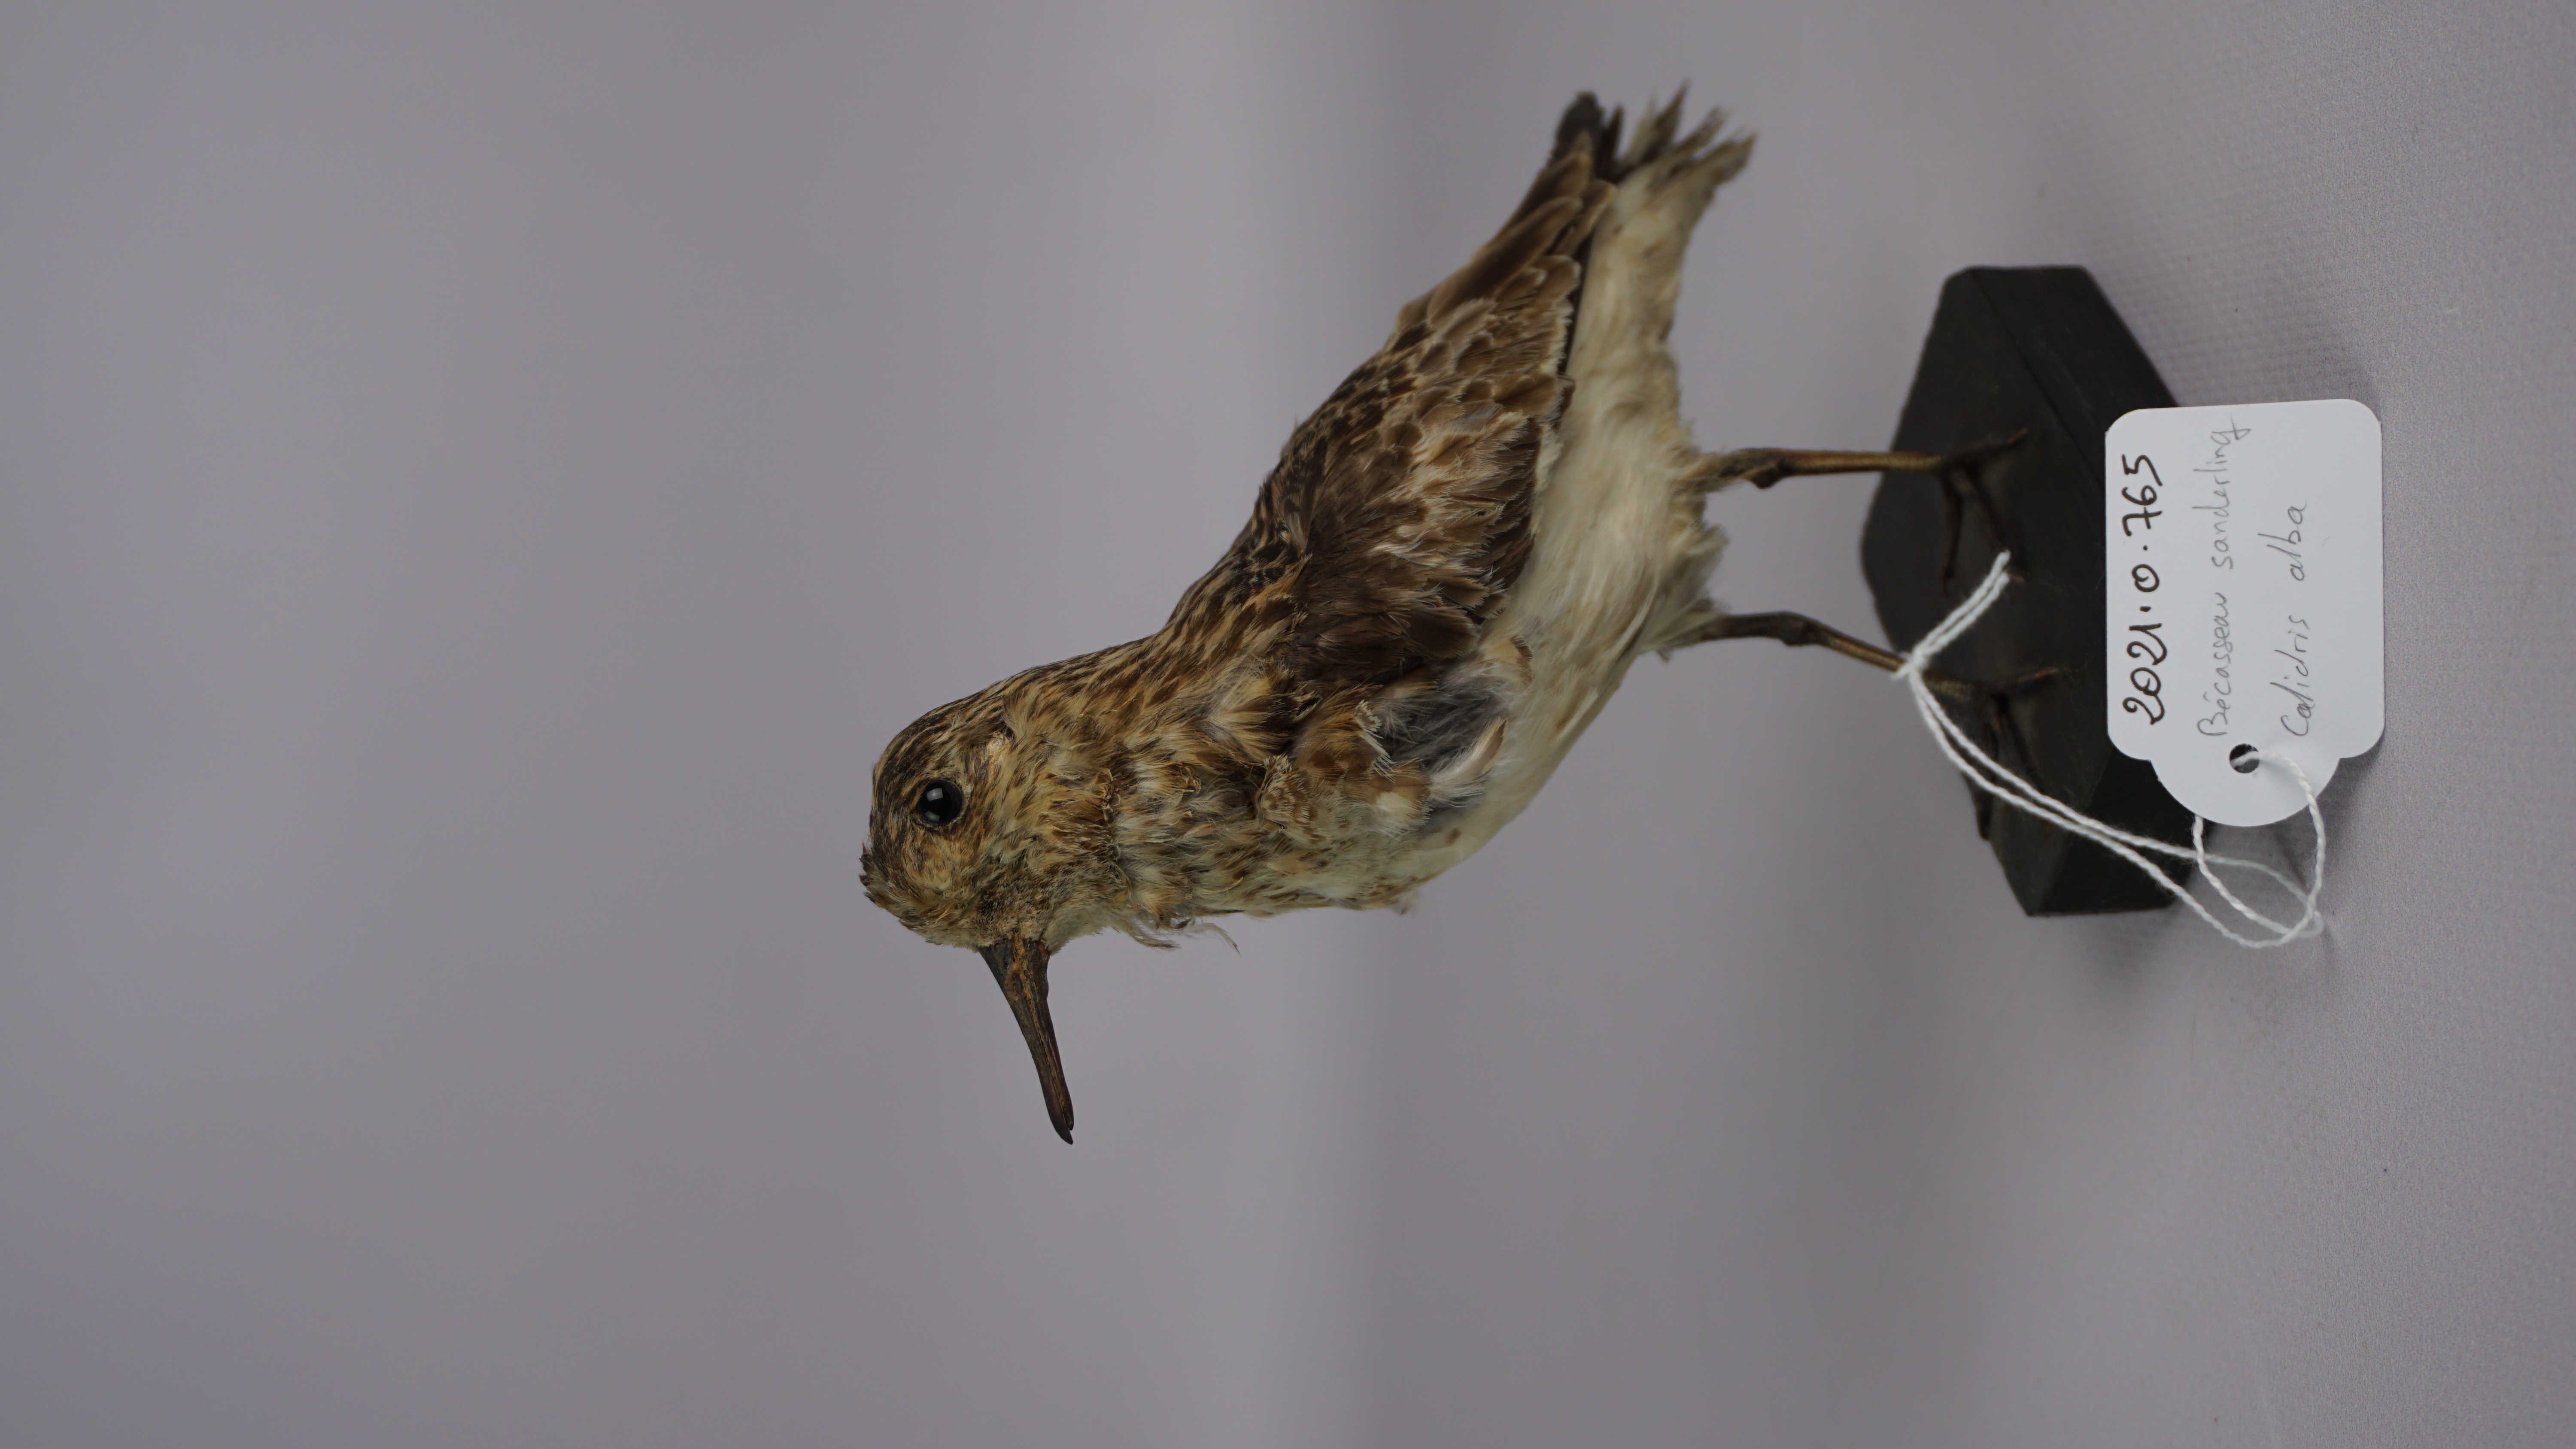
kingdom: Animalia
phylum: Chordata
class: Aves
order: Charadriiformes
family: Scolopacidae
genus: Calidris
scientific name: Calidris alba
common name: Sanderling
